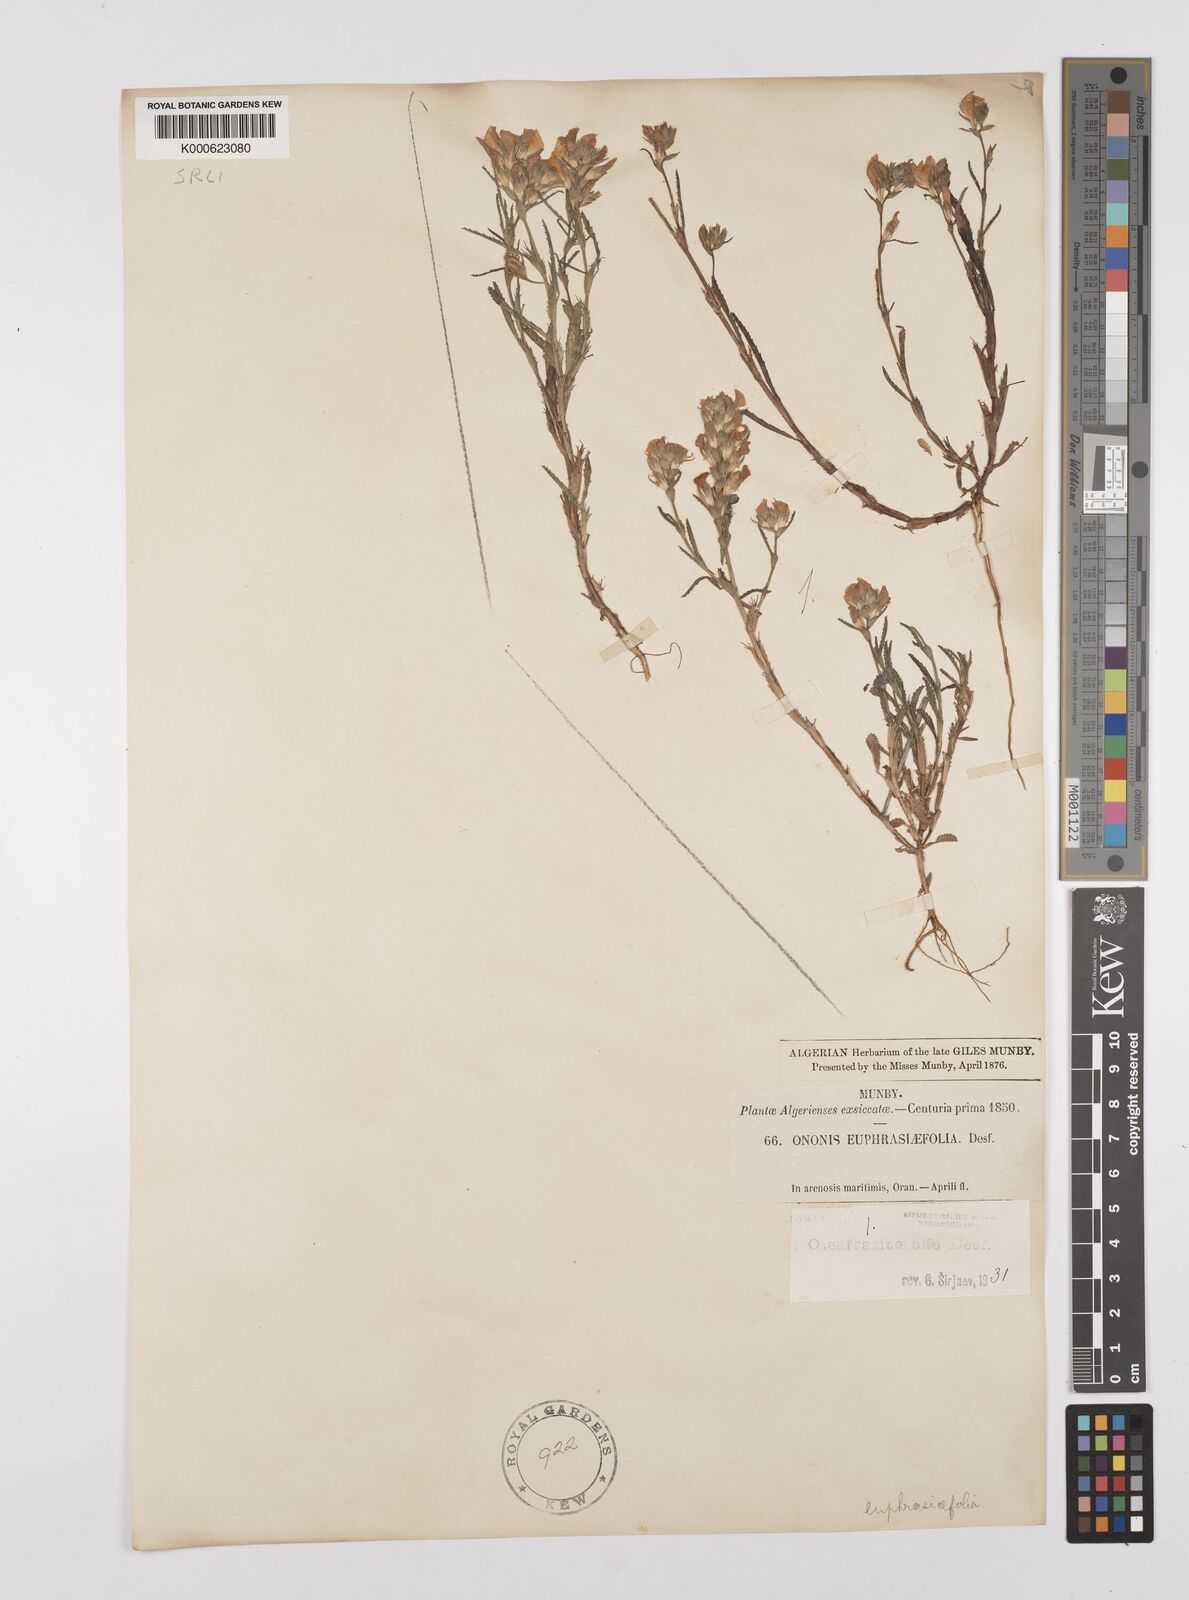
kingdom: Plantae
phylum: Tracheophyta
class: Magnoliopsida
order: Fabales
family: Fabaceae
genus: Ononis
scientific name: Ononis
